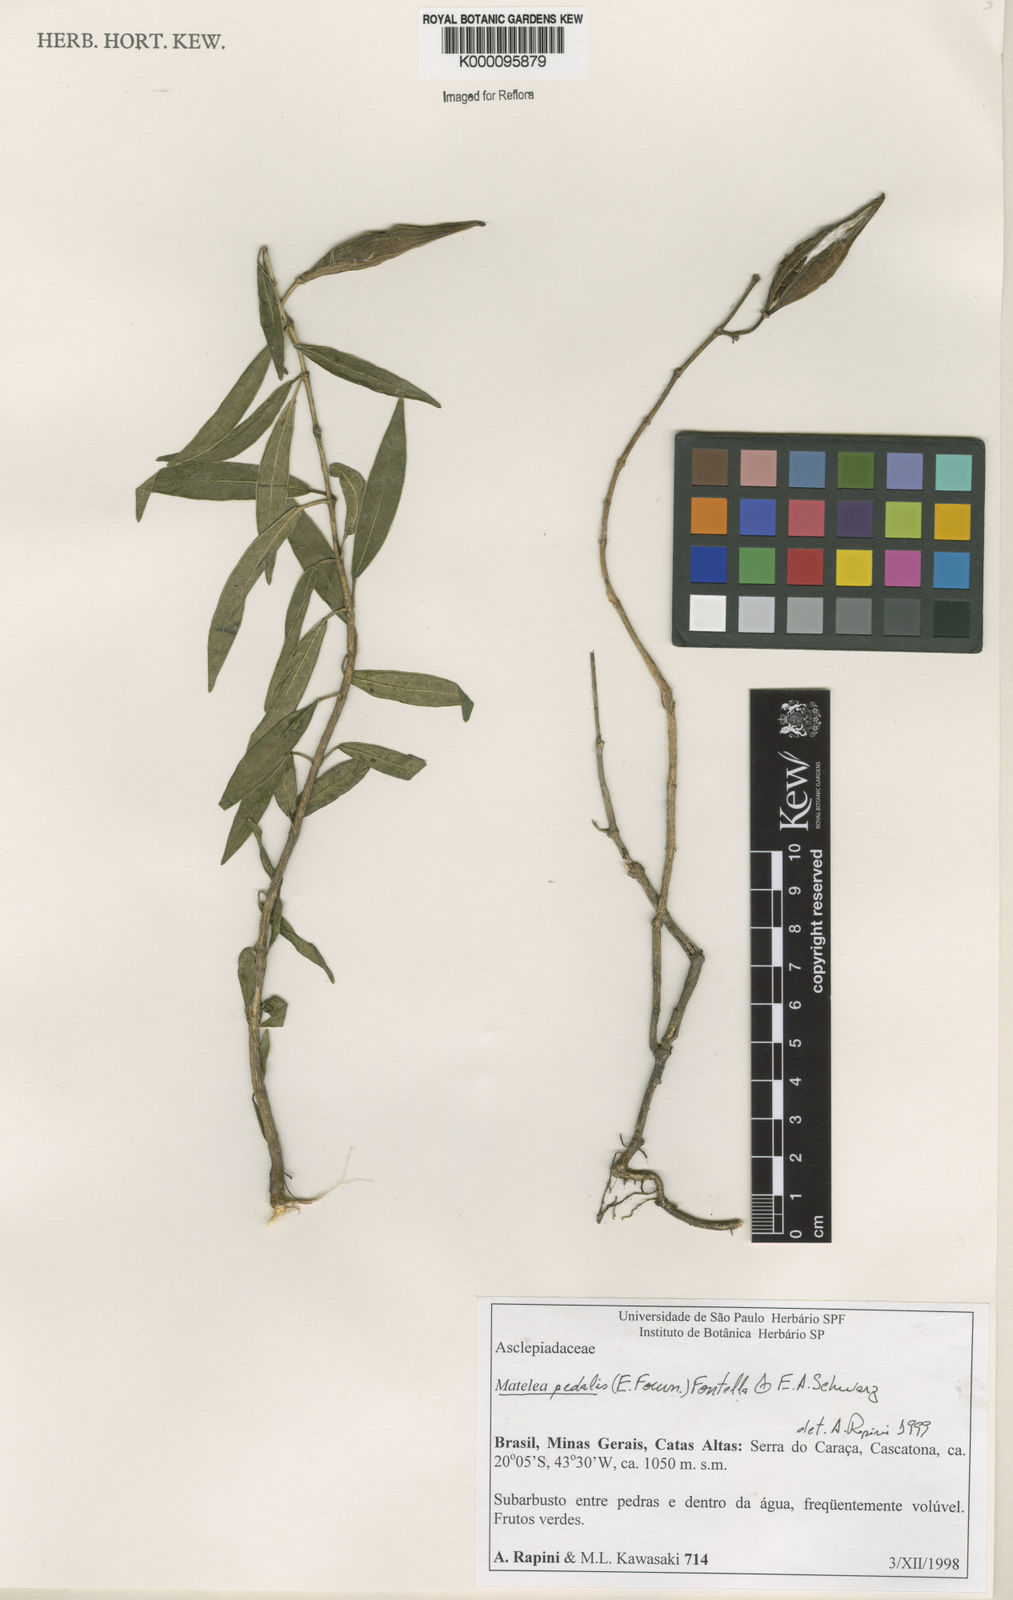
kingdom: Plantae
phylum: Tracheophyta
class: Magnoliopsida
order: Gentianales
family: Apocynaceae
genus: Matelea
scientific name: Matelea pedalis
